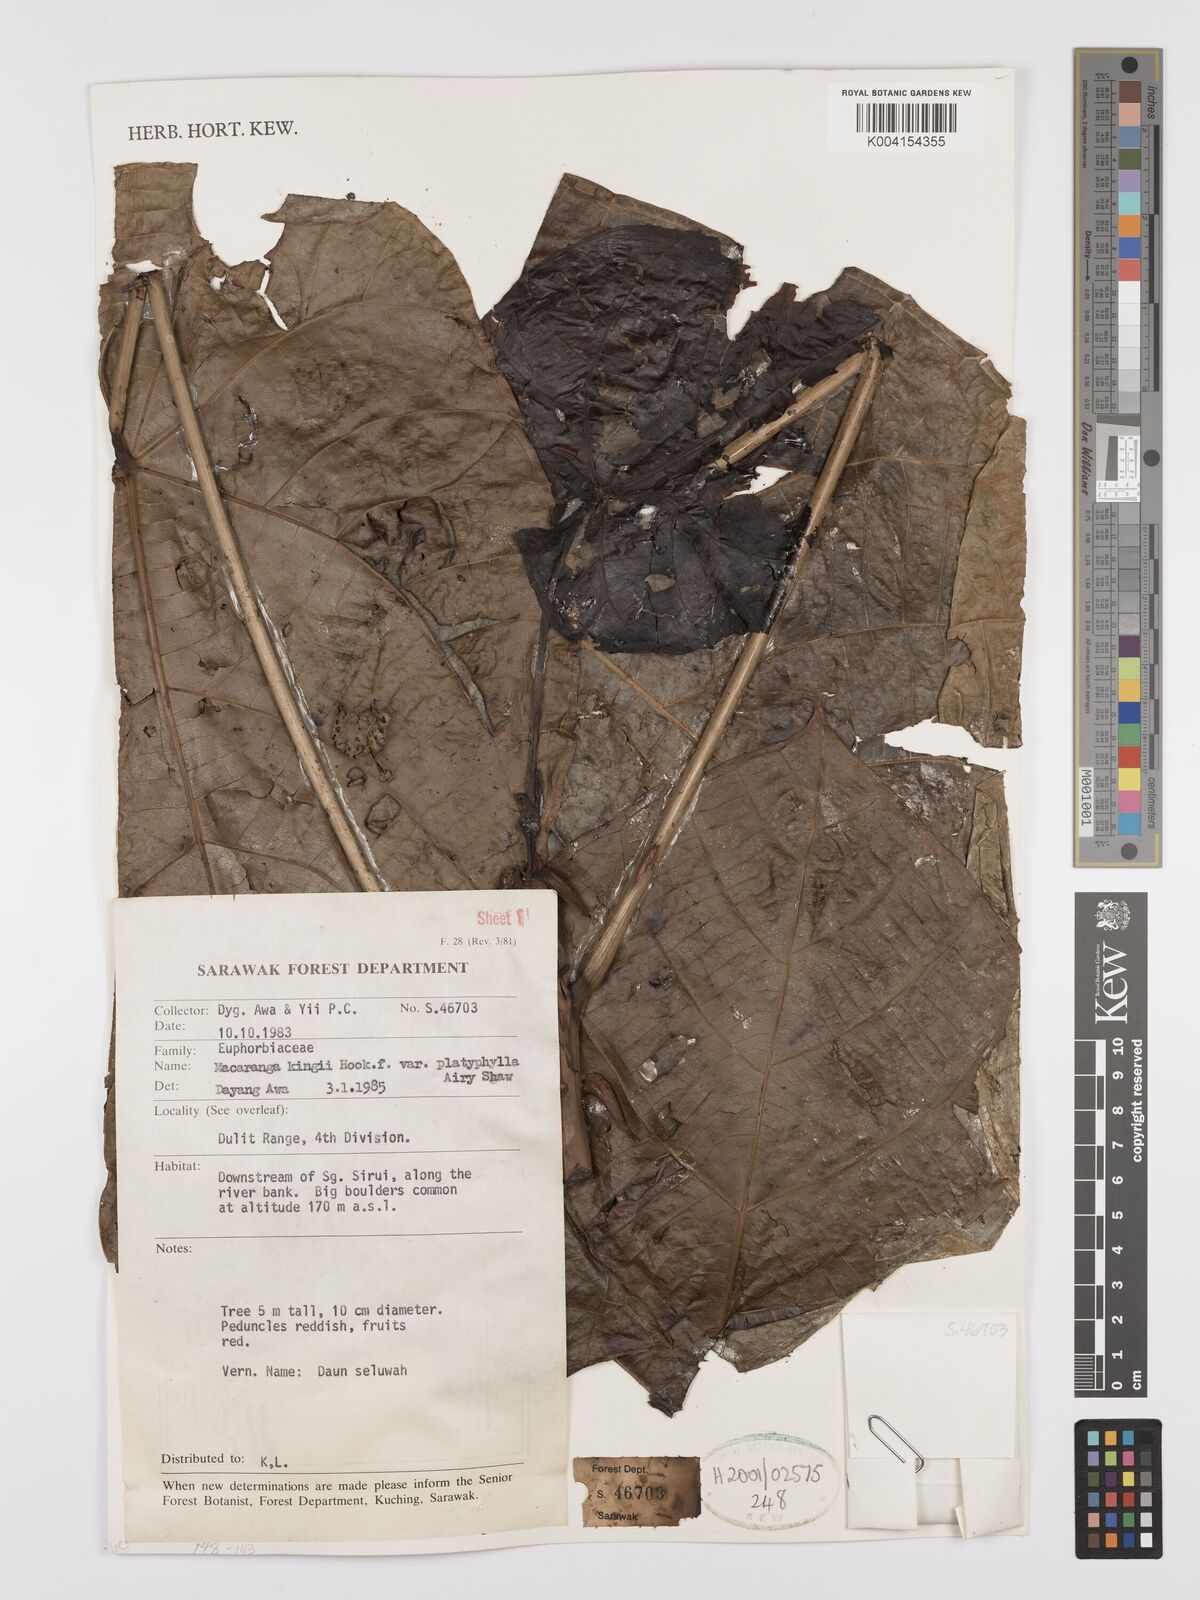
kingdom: Plantae
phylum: Tracheophyta
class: Magnoliopsida
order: Malpighiales
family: Euphorbiaceae
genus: Macaranga
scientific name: Macaranga umbrosa
